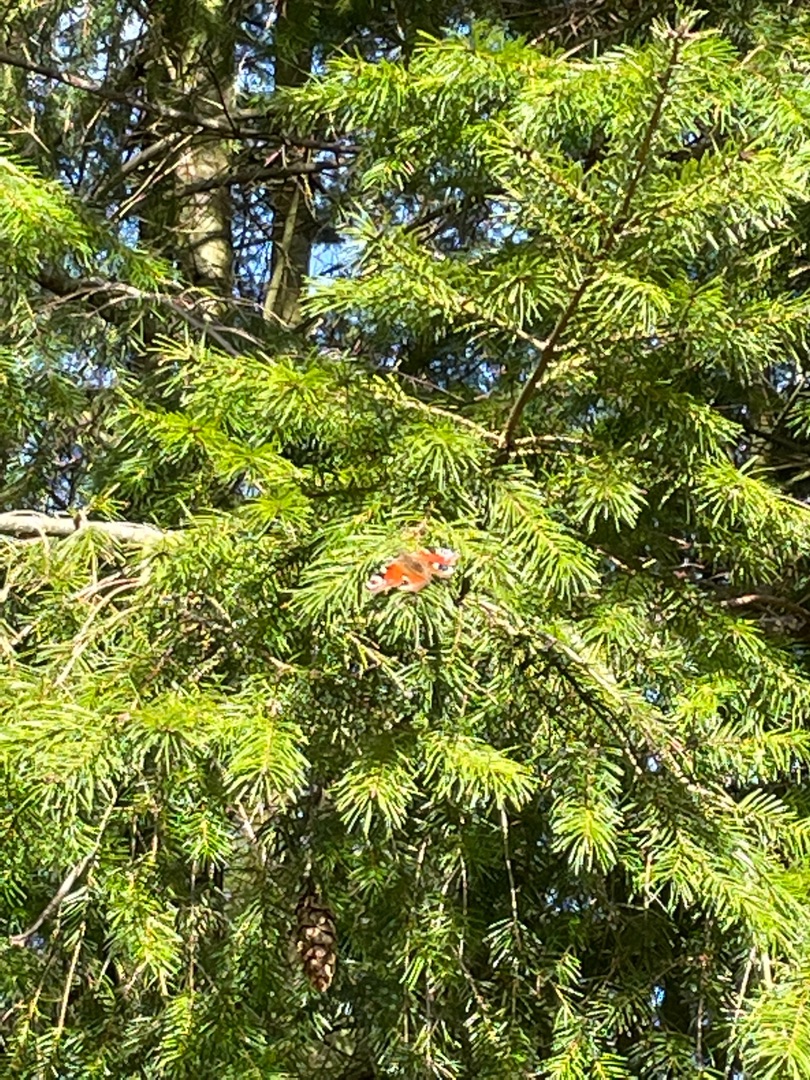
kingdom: Animalia
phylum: Arthropoda
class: Insecta
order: Lepidoptera
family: Nymphalidae
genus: Aglais
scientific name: Aglais io
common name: Dagpåfugleøje
